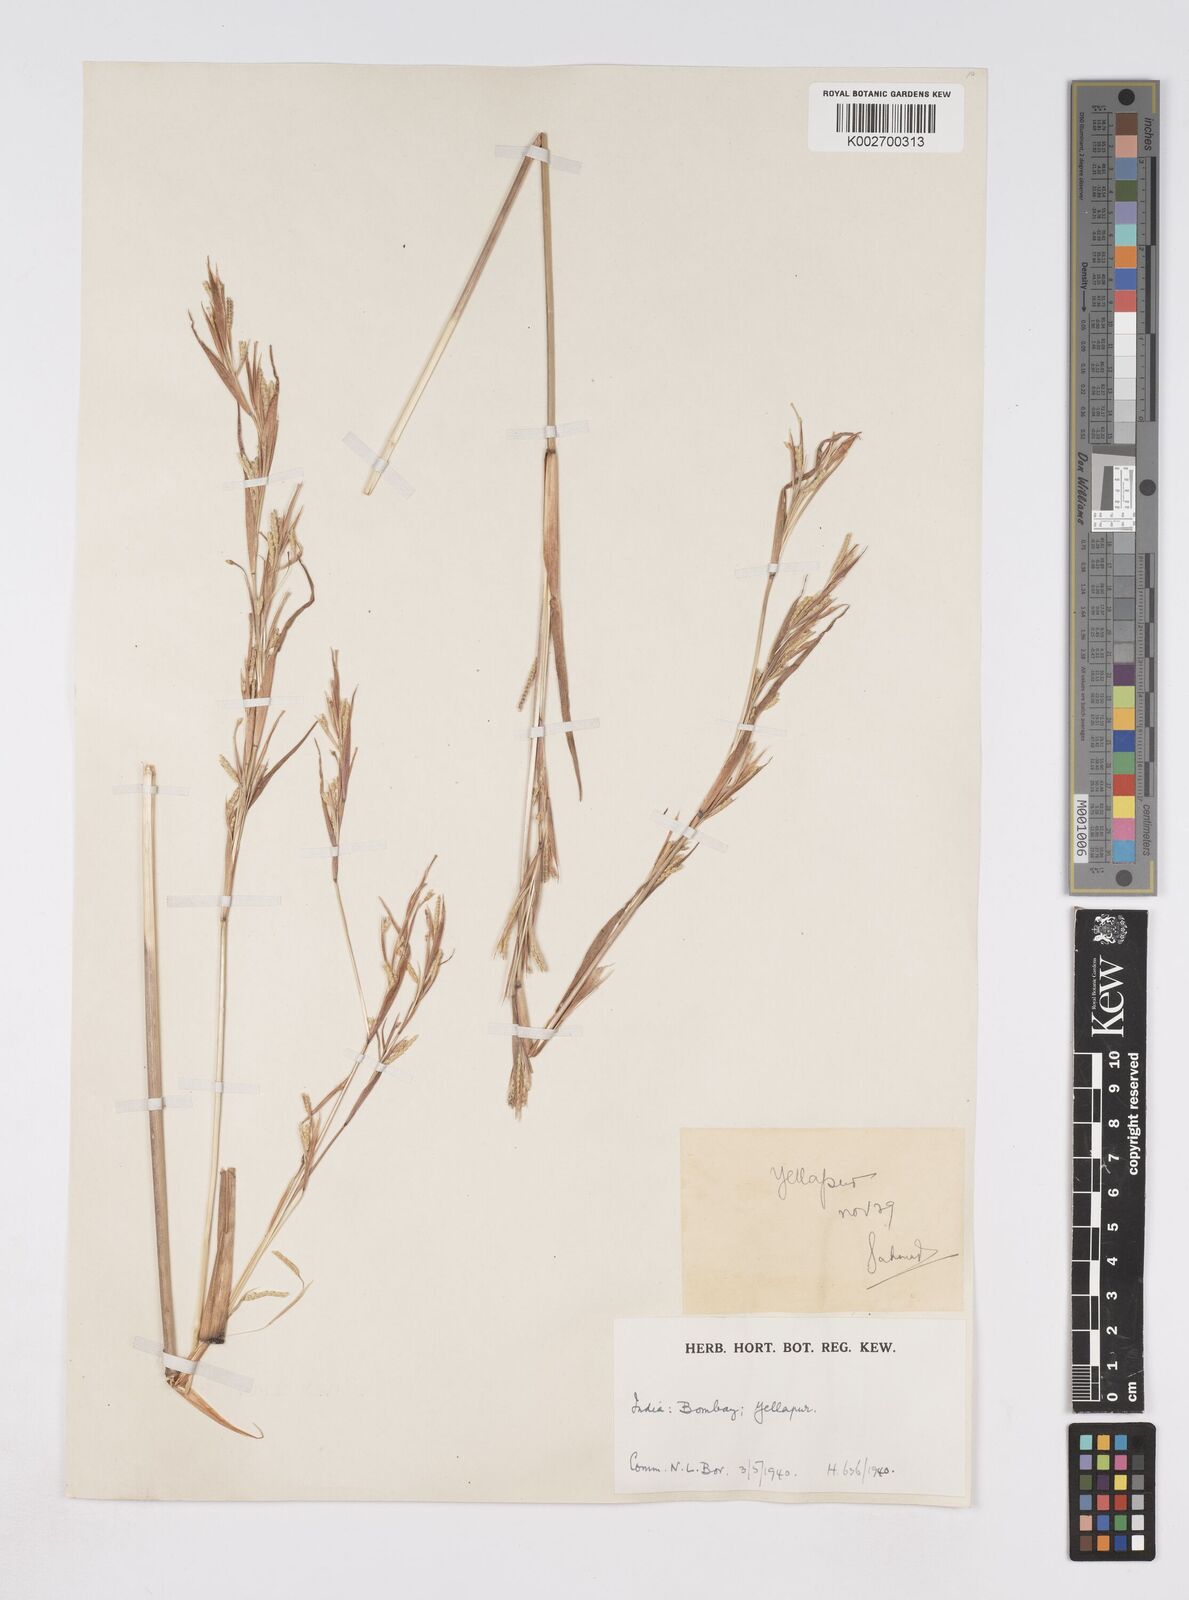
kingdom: Plantae
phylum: Tracheophyta
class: Liliopsida
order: Poales
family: Poaceae
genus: Rottboellia
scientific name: Rottboellia clarkei
